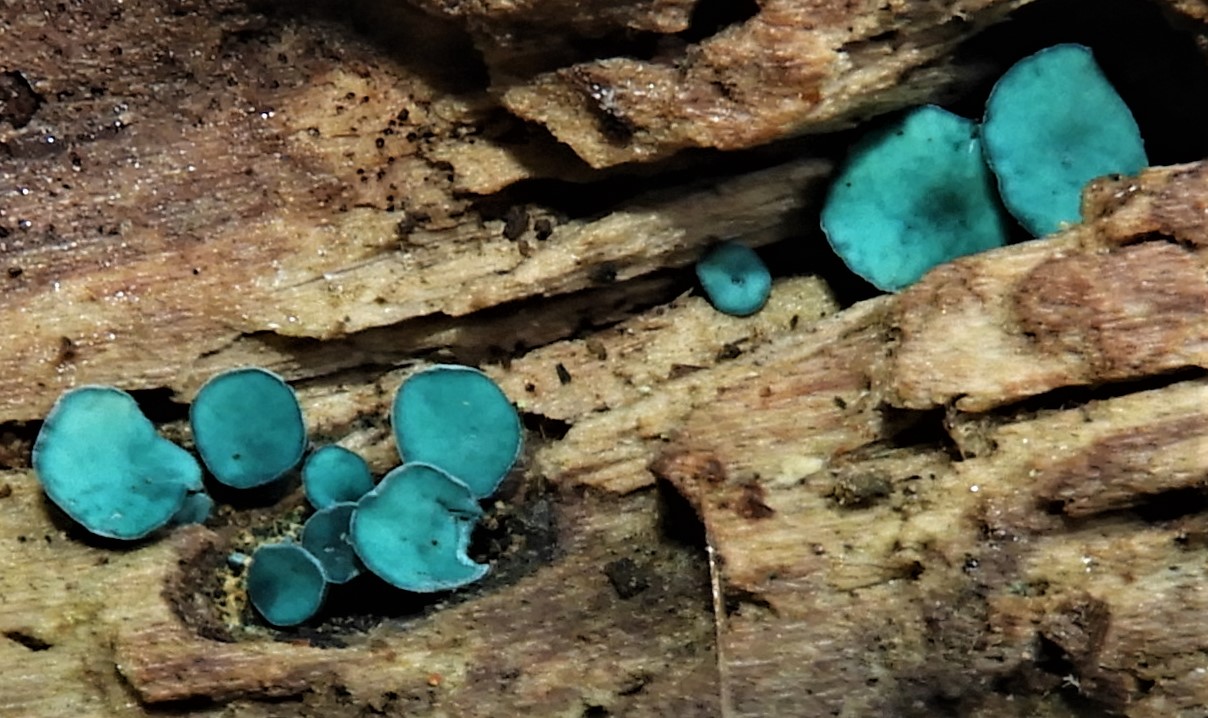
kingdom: Fungi
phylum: Ascomycota
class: Leotiomycetes
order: Helotiales
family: Chlorociboriaceae
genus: Chlorociboria
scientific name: Chlorociboria aeruginascens
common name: almindelig grønskive
